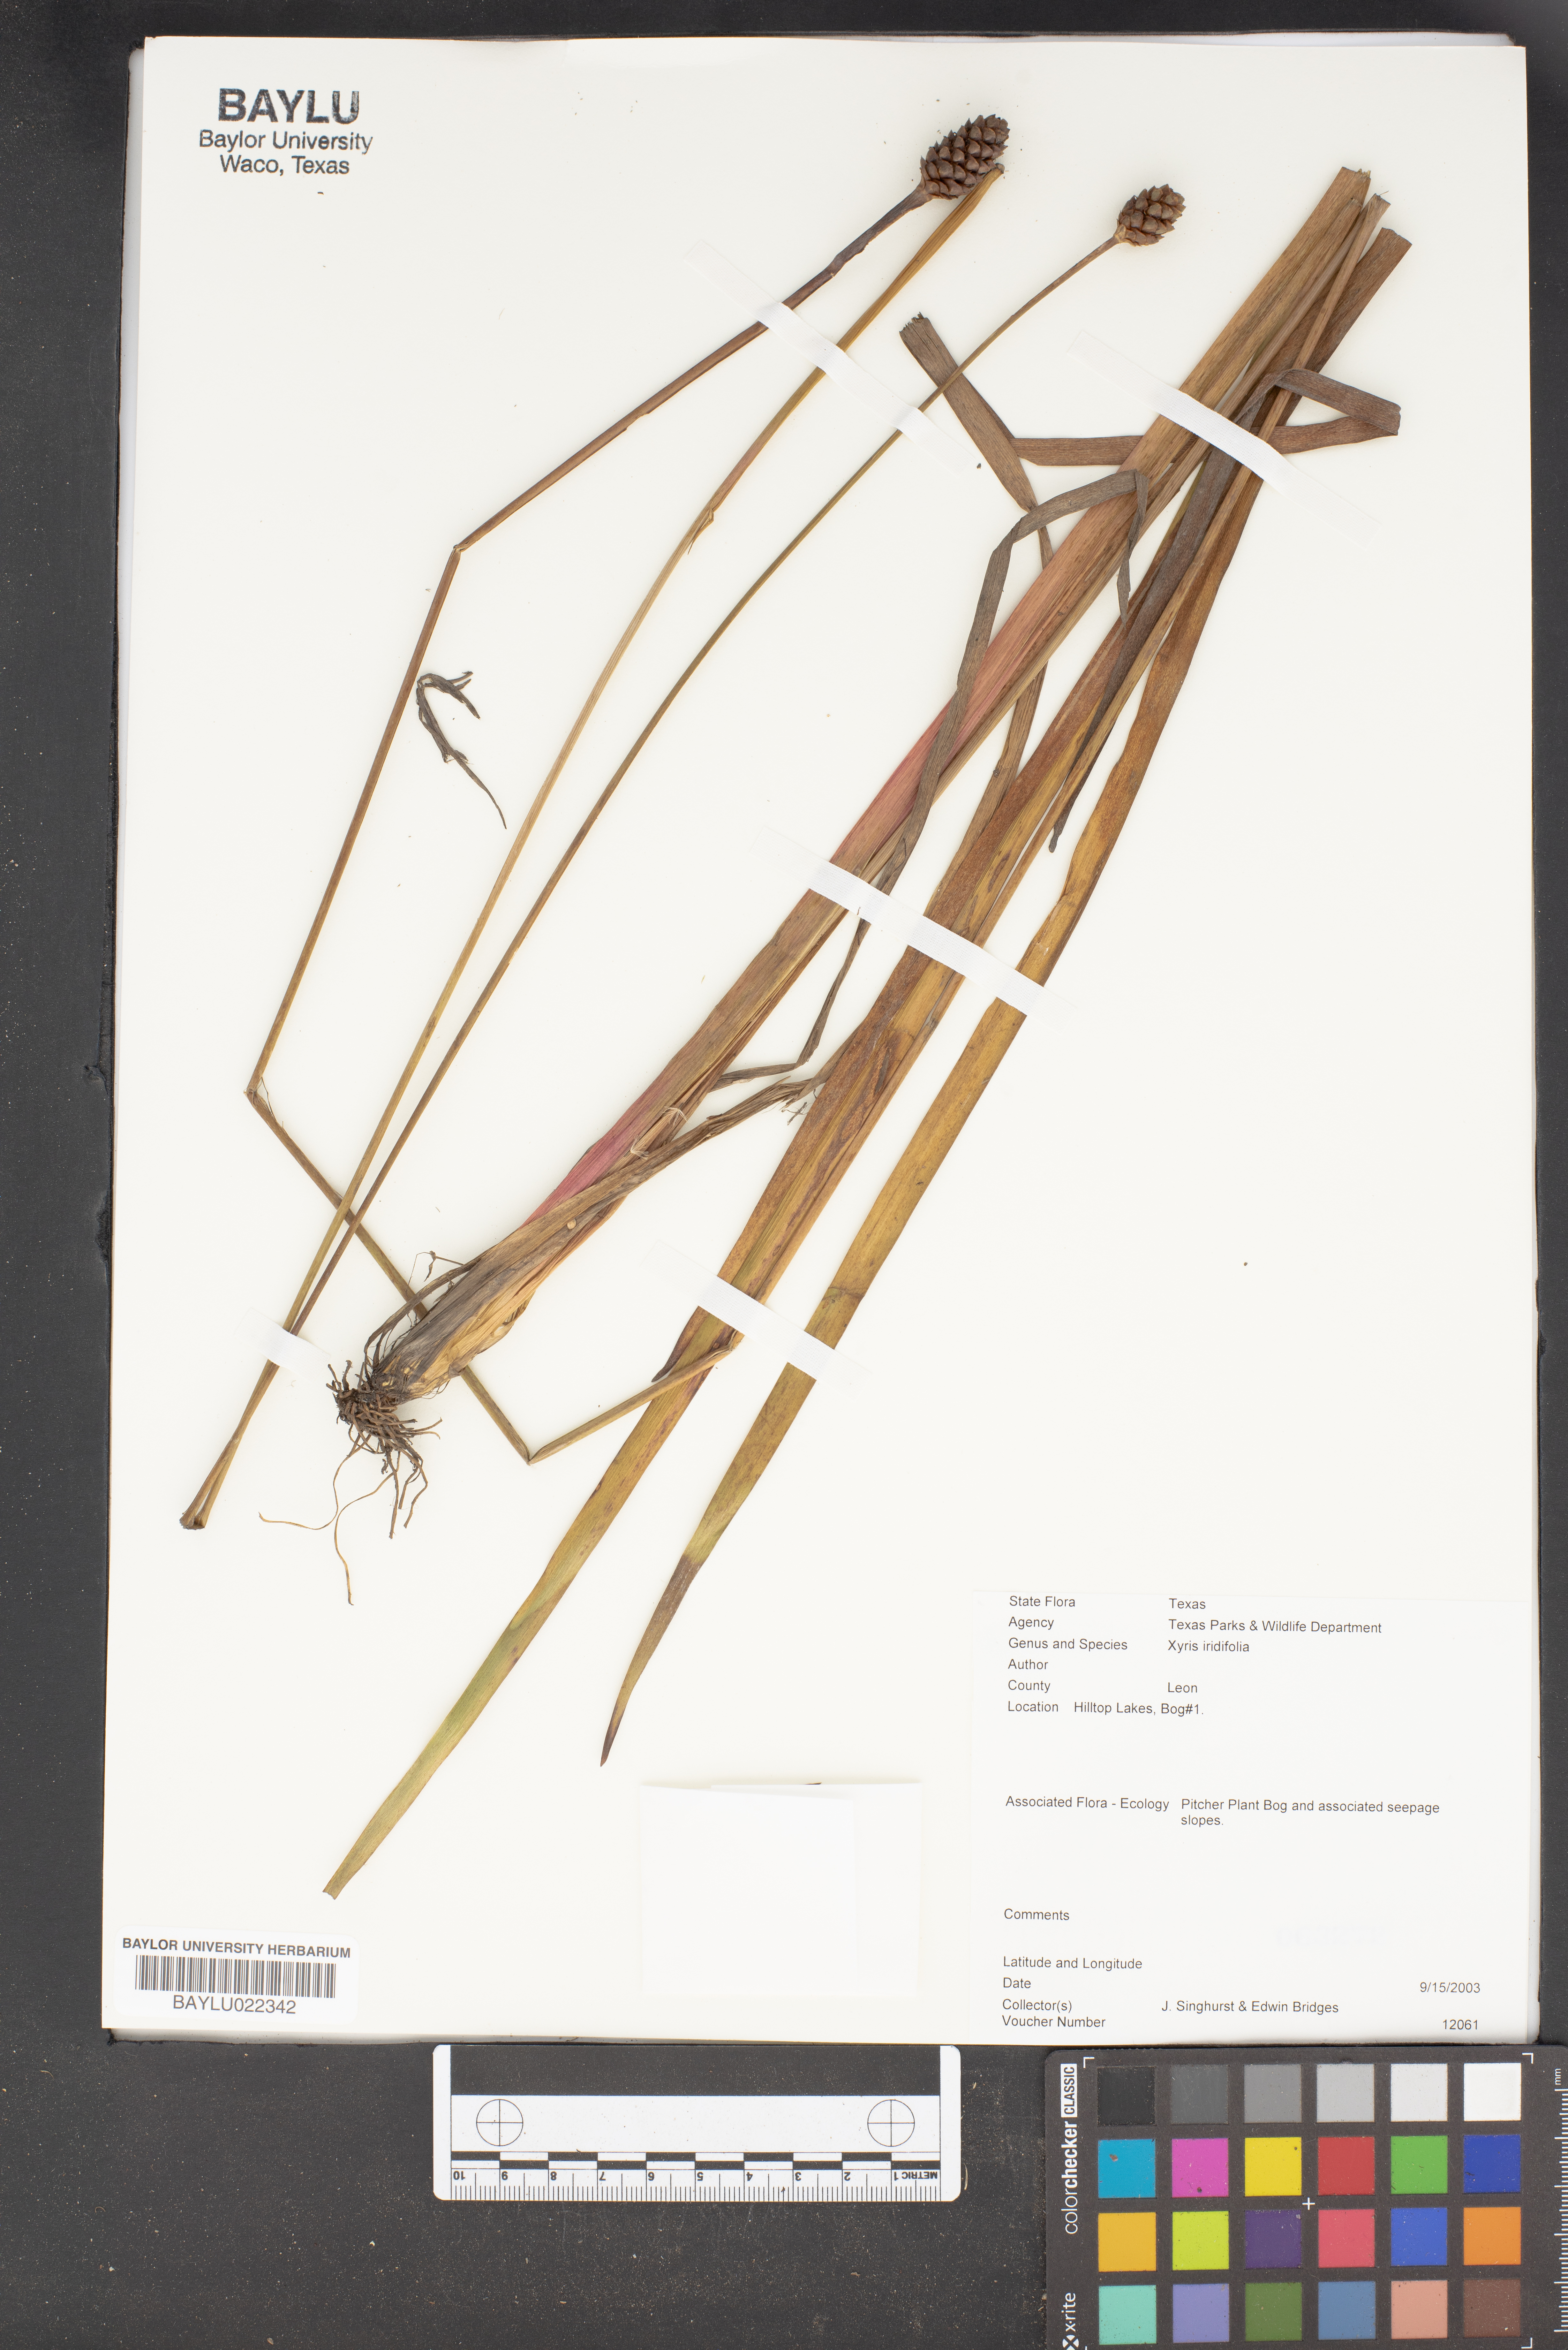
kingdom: Plantae
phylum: Tracheophyta
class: Liliopsida
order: Poales
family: Xyridaceae
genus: Xyris
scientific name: Xyris laxifolia
